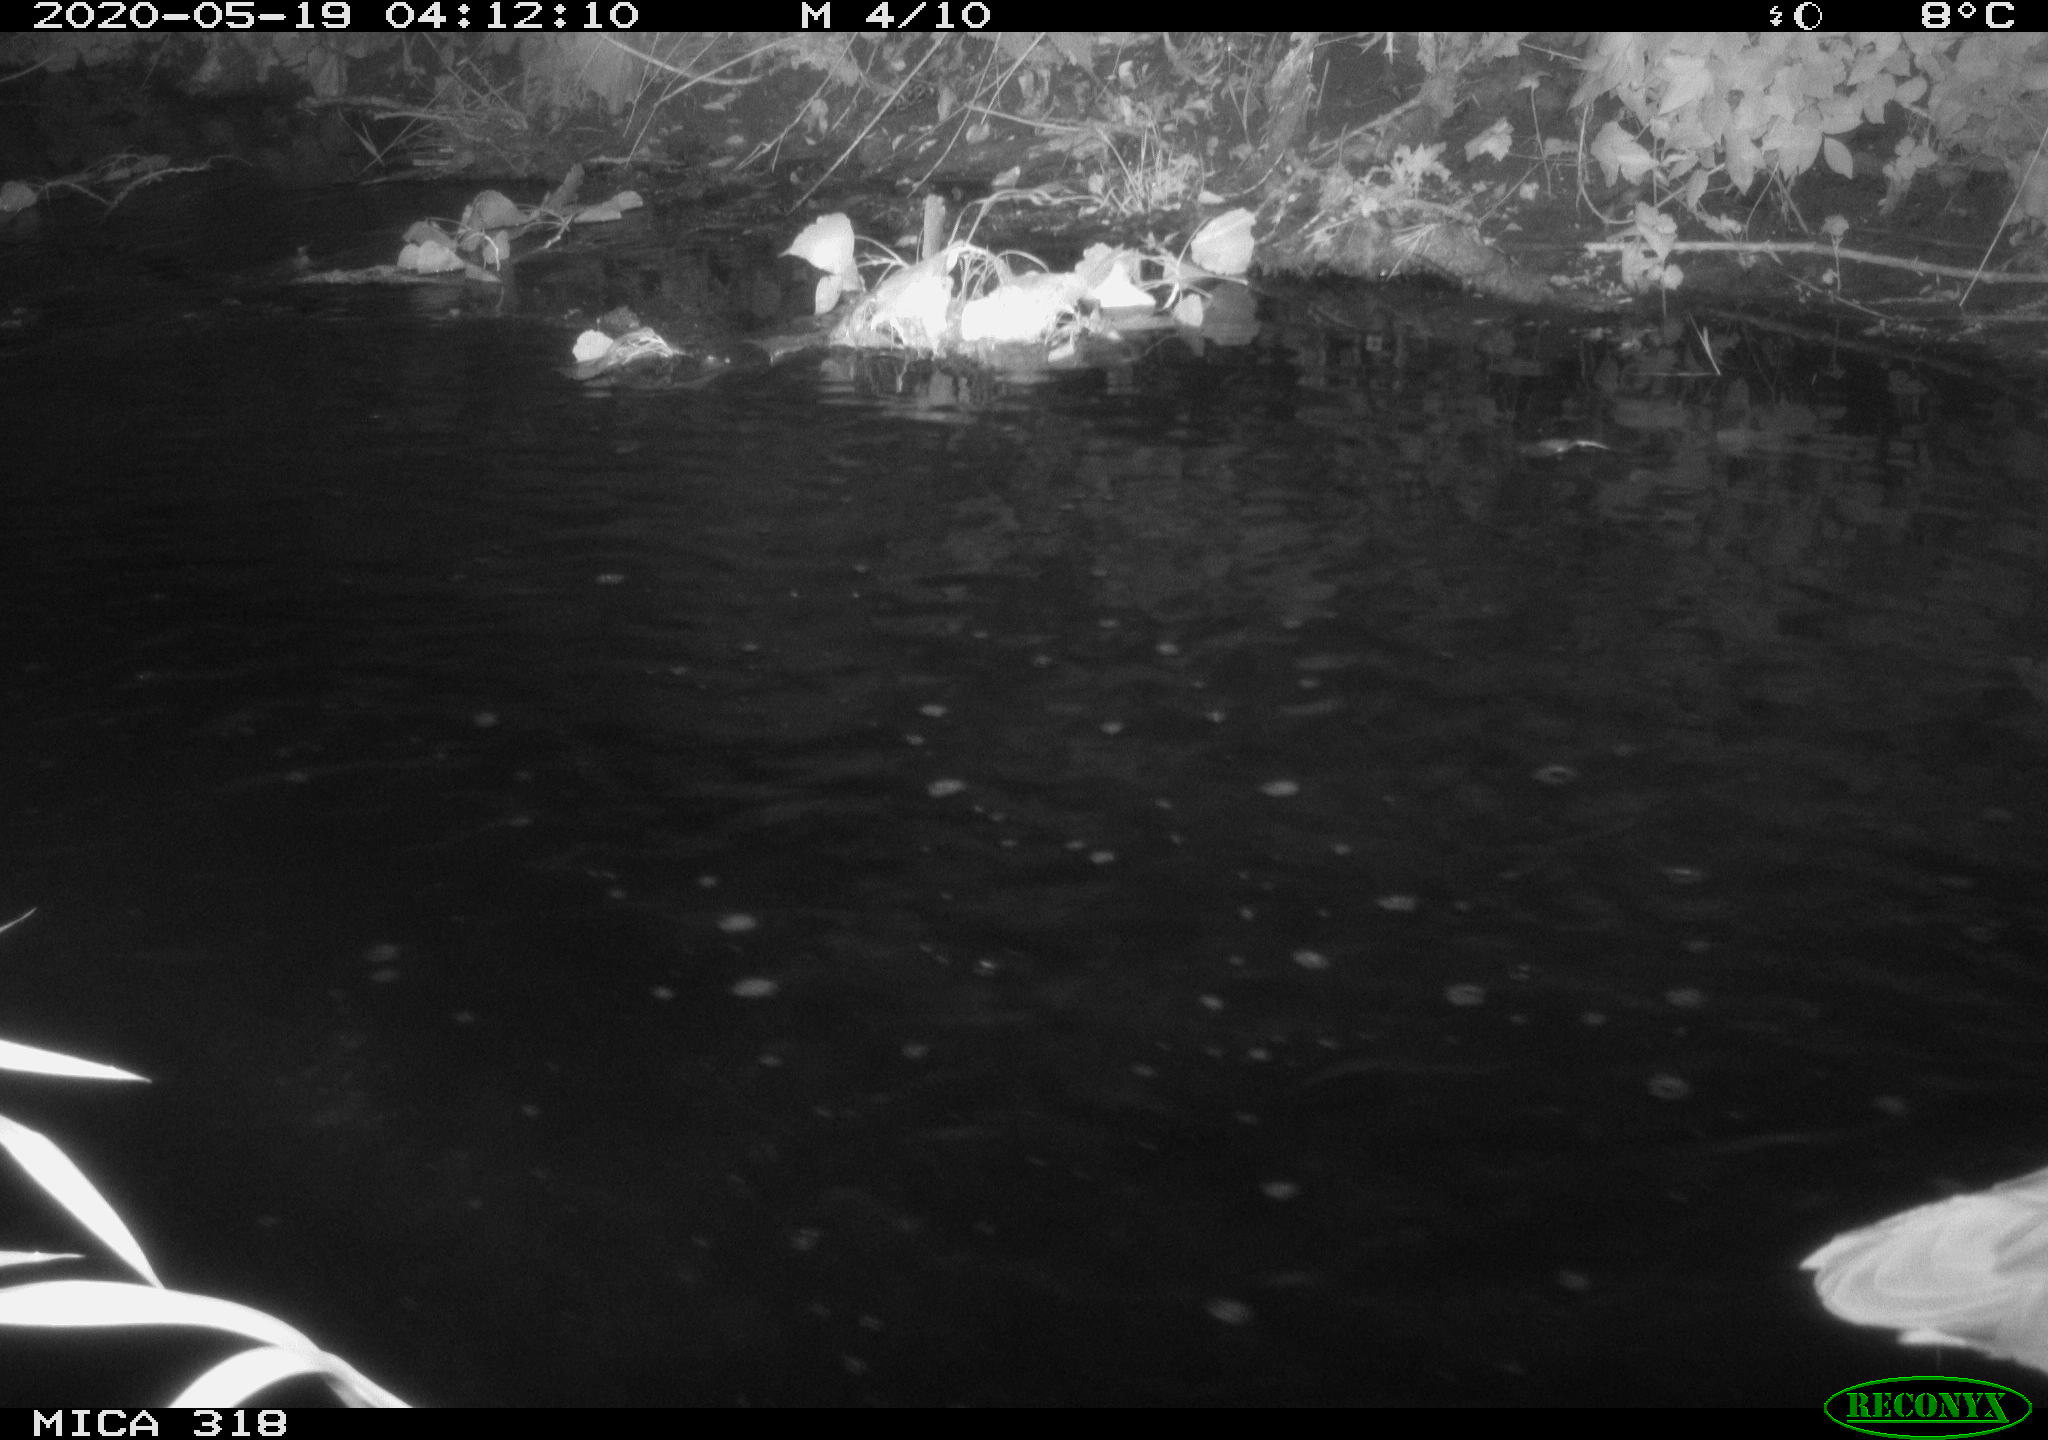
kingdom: Animalia
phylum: Chordata
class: Aves
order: Pelecaniformes
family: Ardeidae
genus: Ardea
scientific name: Ardea cinerea
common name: Grey heron
